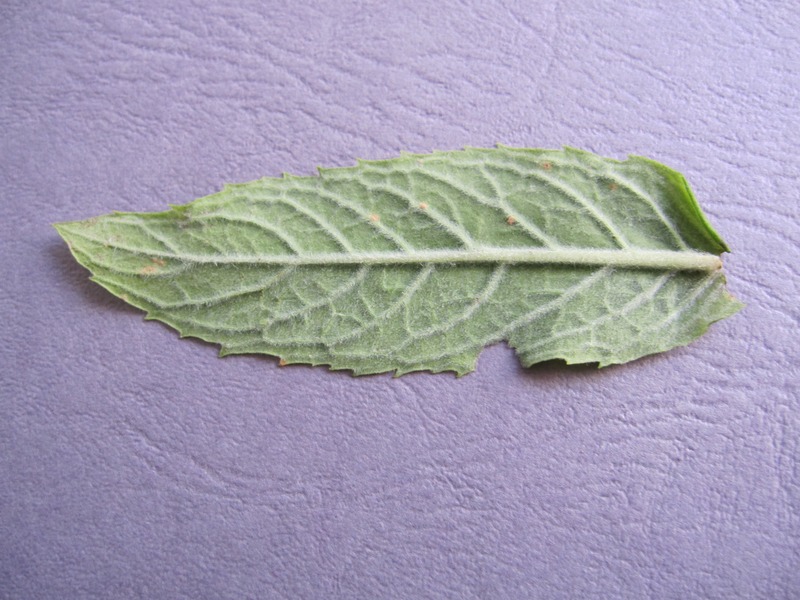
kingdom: Fungi
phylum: Basidiomycota
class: Pucciniomycetes
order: Pucciniales
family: Pucciniaceae
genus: Puccinia
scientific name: Puccinia menthae
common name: Mint rust
